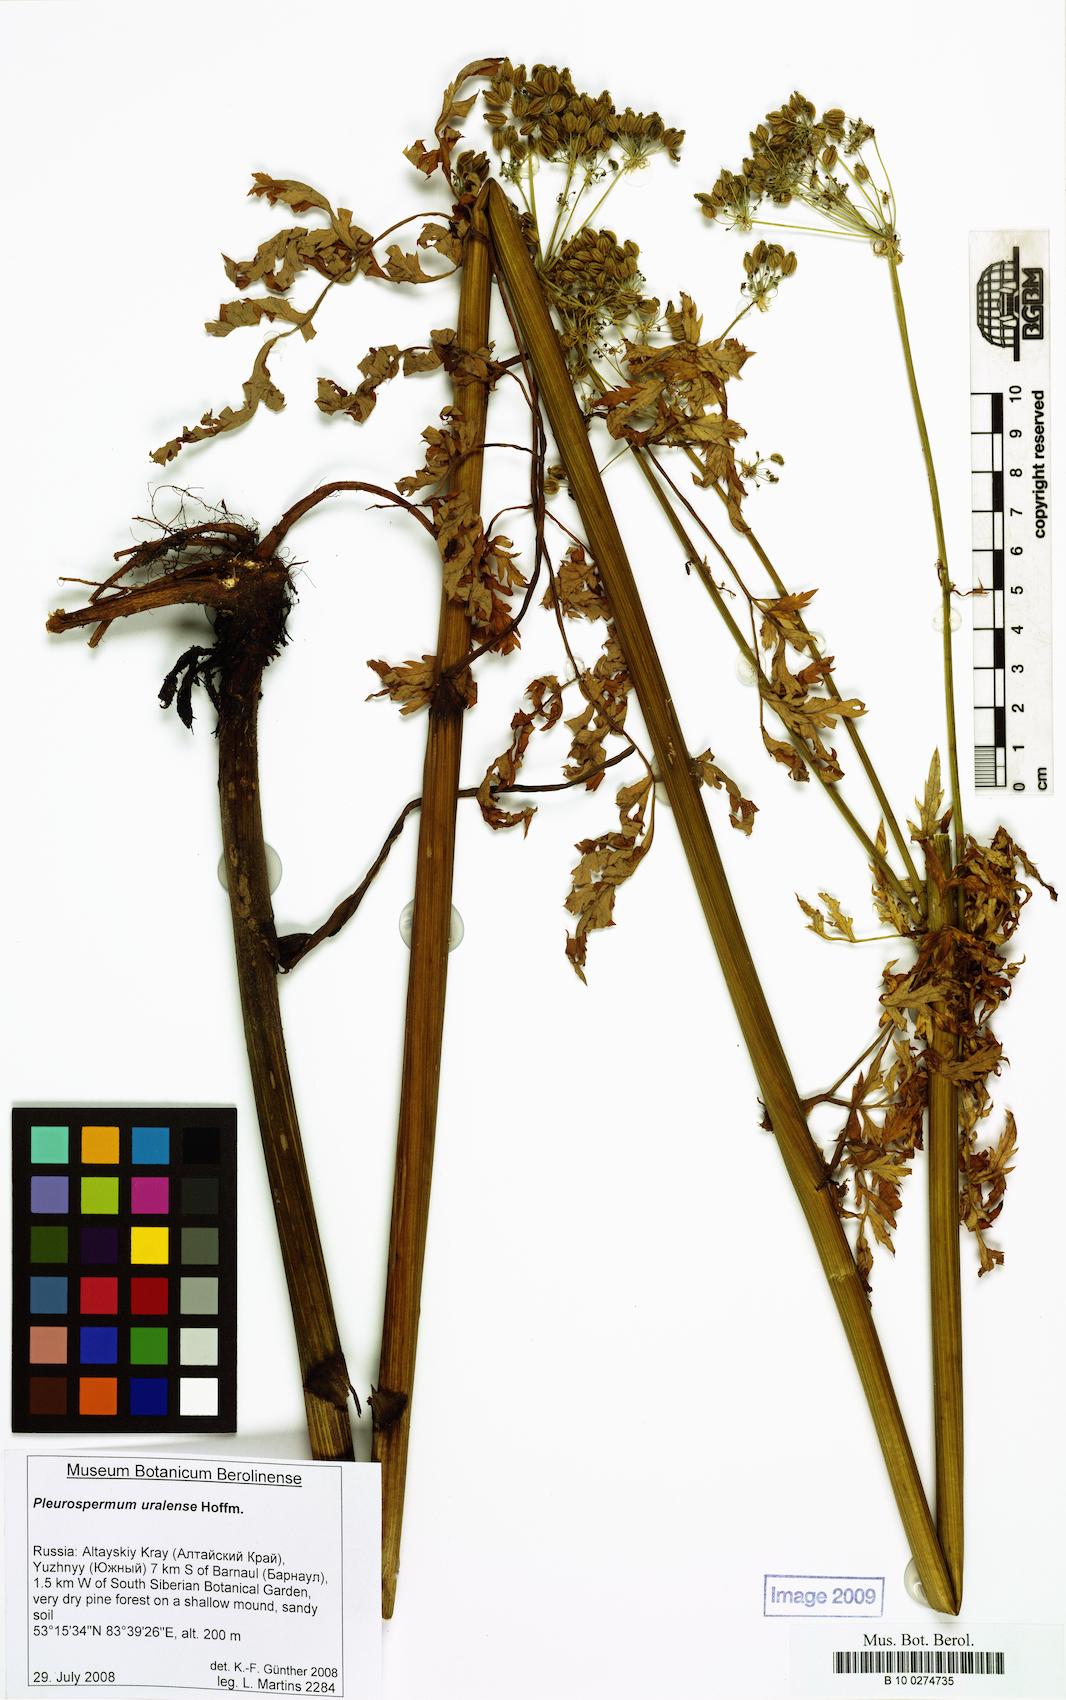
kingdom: Plantae
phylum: Tracheophyta
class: Magnoliopsida
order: Apiales
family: Apiaceae
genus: Pleurospermum
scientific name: Pleurospermum uralense
